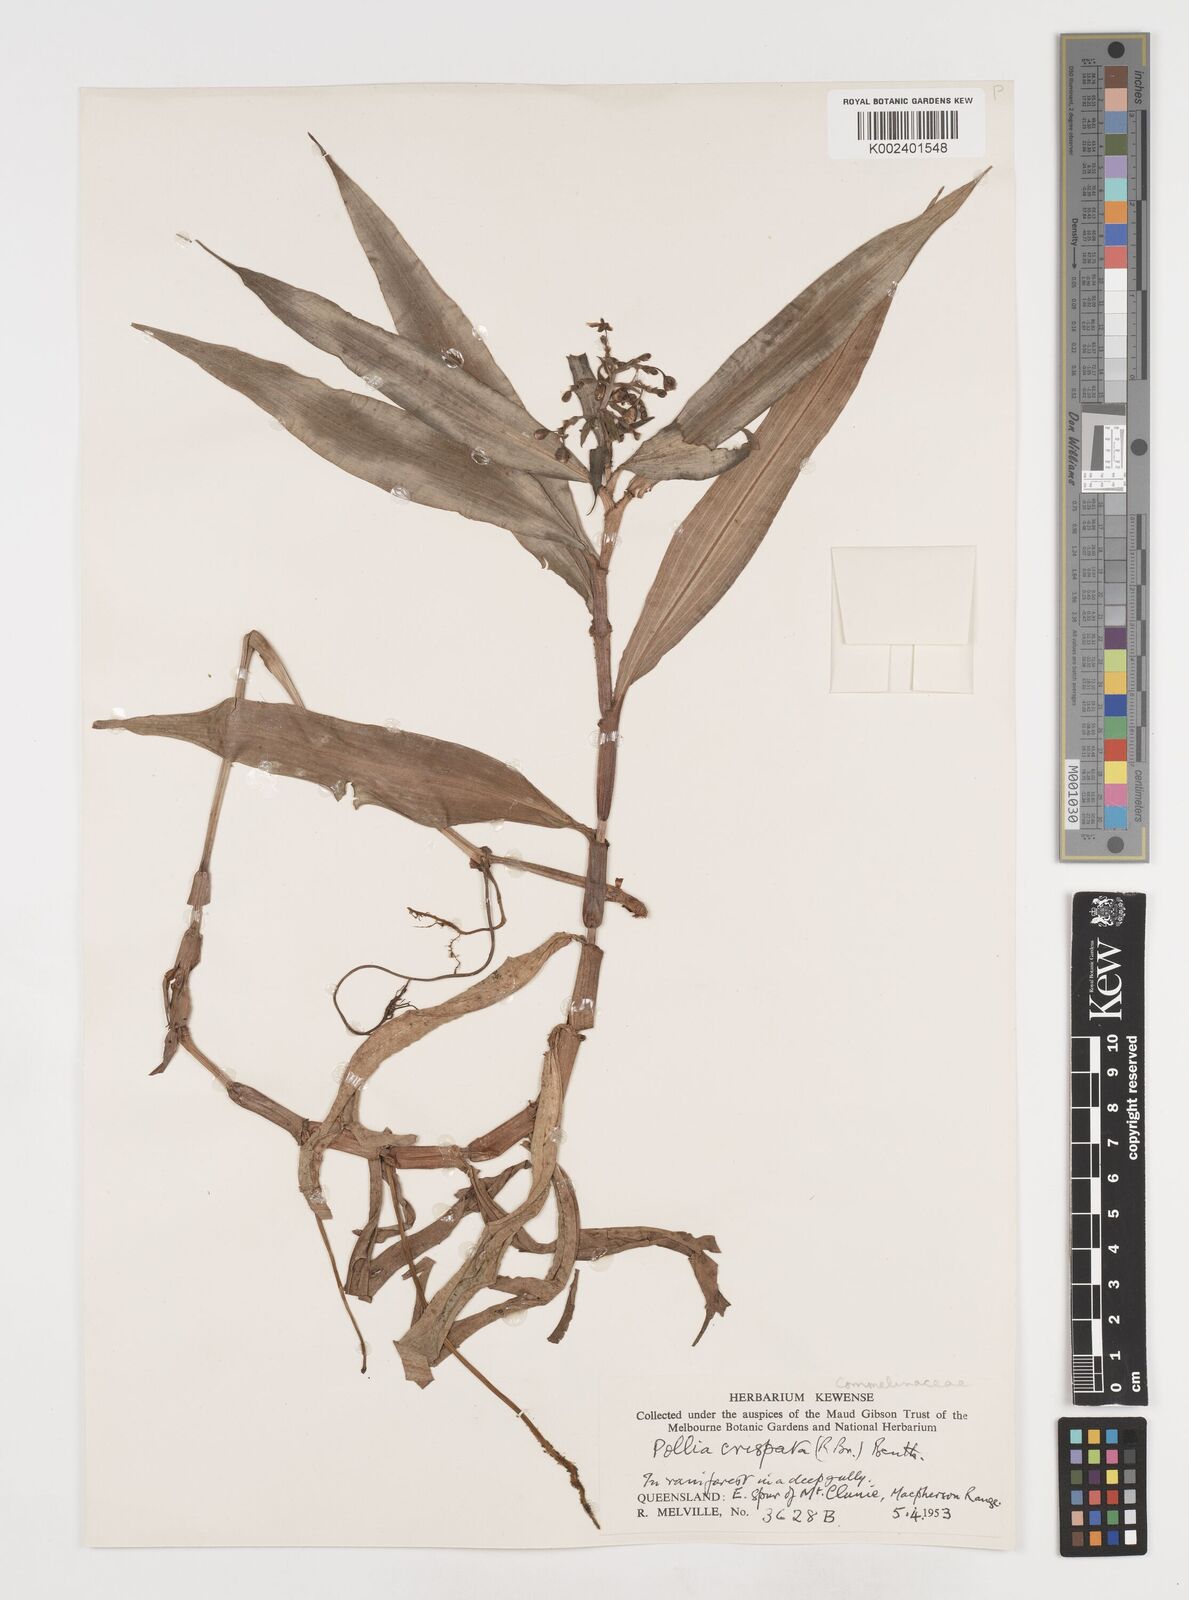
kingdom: Plantae
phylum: Tracheophyta
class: Liliopsida
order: Commelinales
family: Commelinaceae
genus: Pollia
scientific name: Pollia crispata
